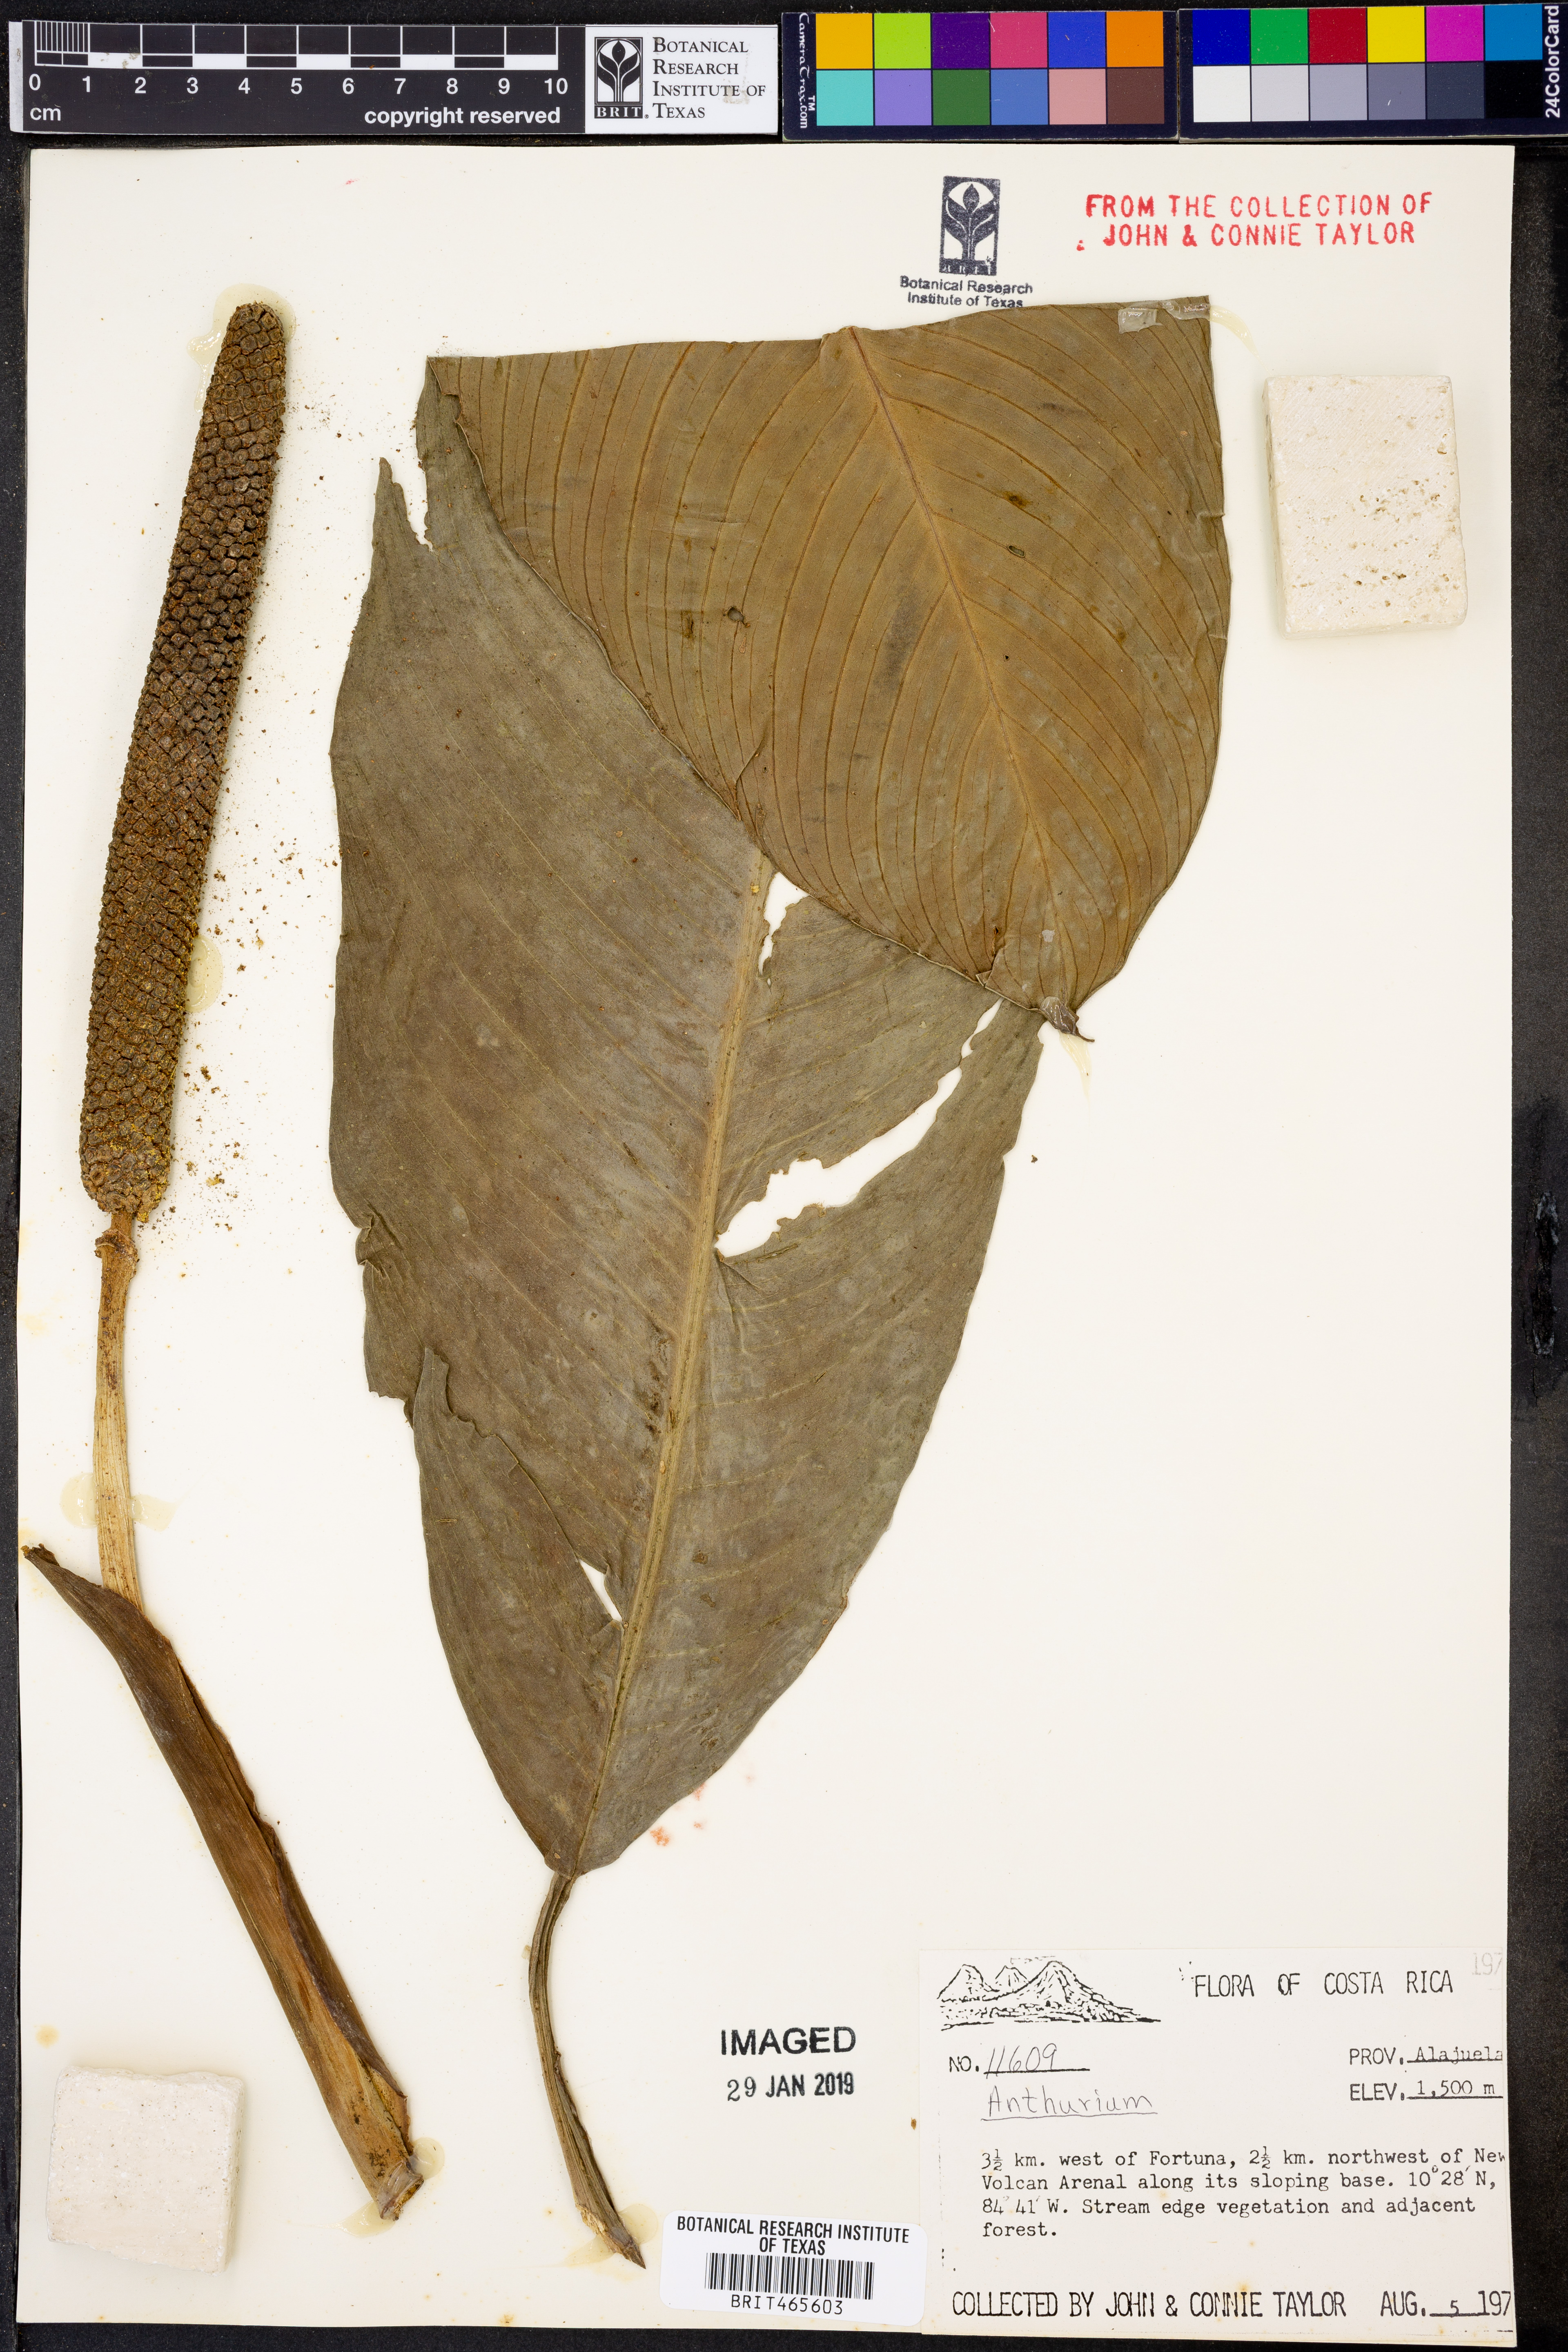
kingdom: Plantae
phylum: Tracheophyta
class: Liliopsida
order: Alismatales
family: Araceae
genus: Anthurium
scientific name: Anthurium
